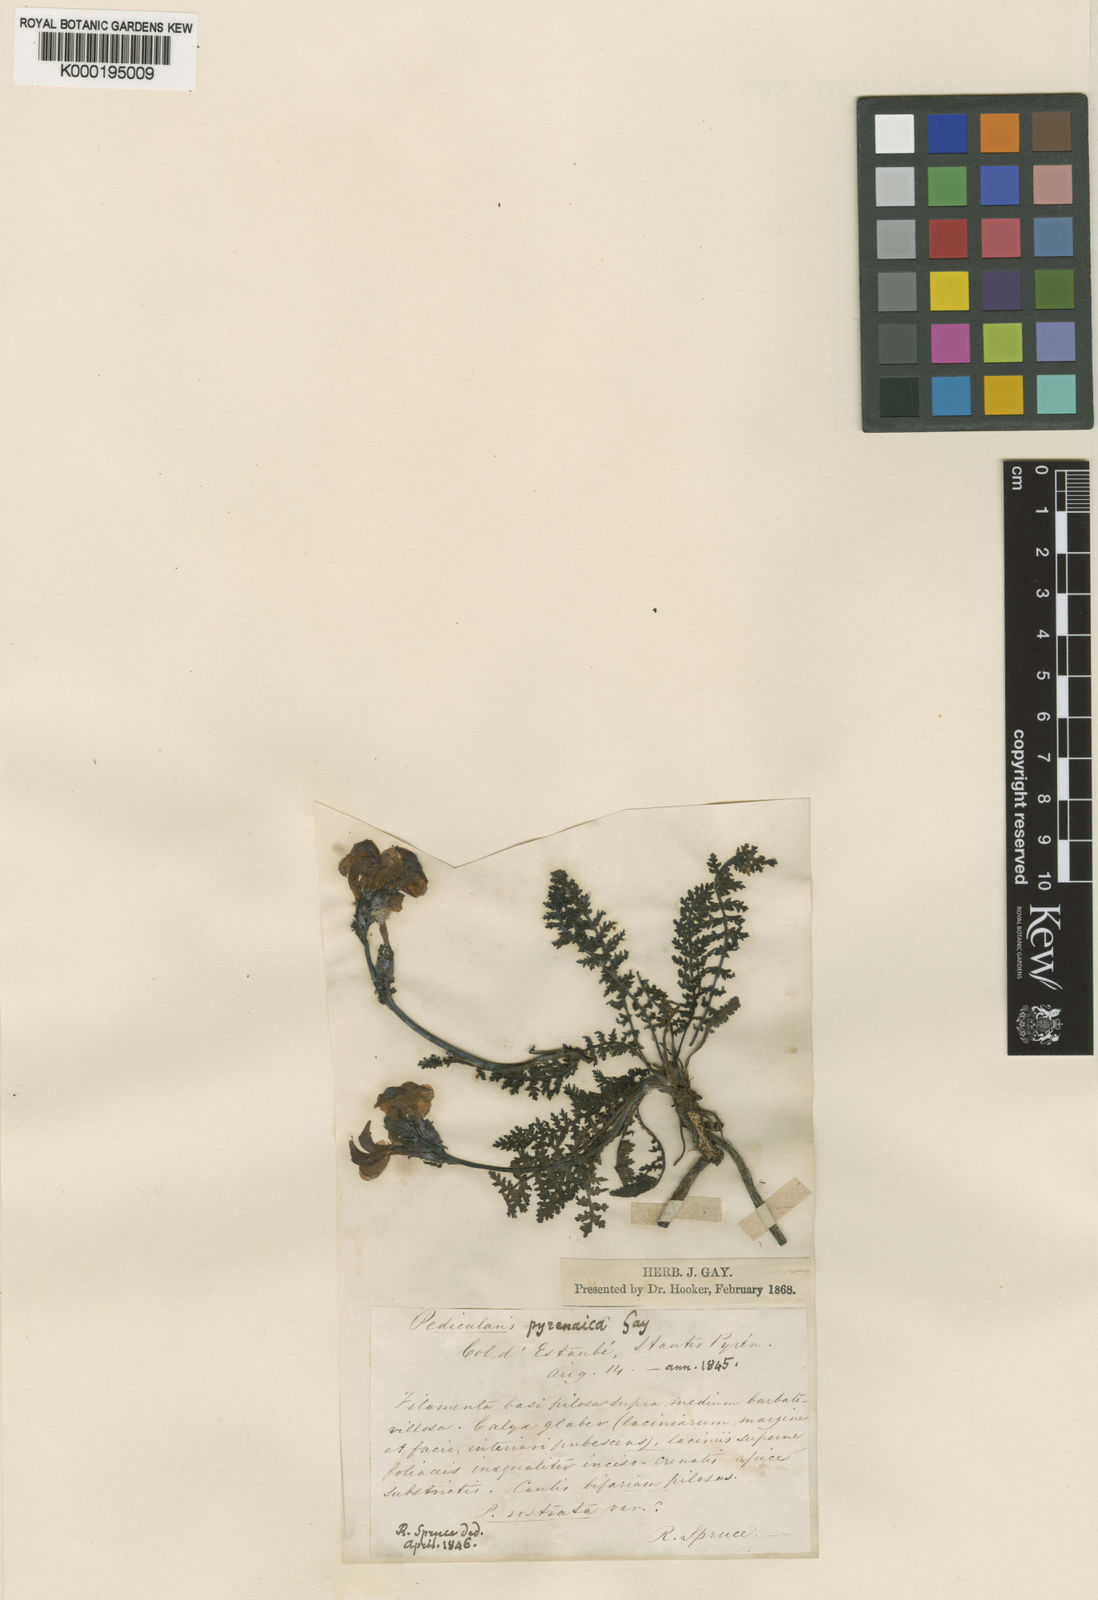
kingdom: Plantae
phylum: Tracheophyta
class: Magnoliopsida
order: Lamiales
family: Orobanchaceae
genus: Pedicularis
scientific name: Pedicularis pyrenaica
